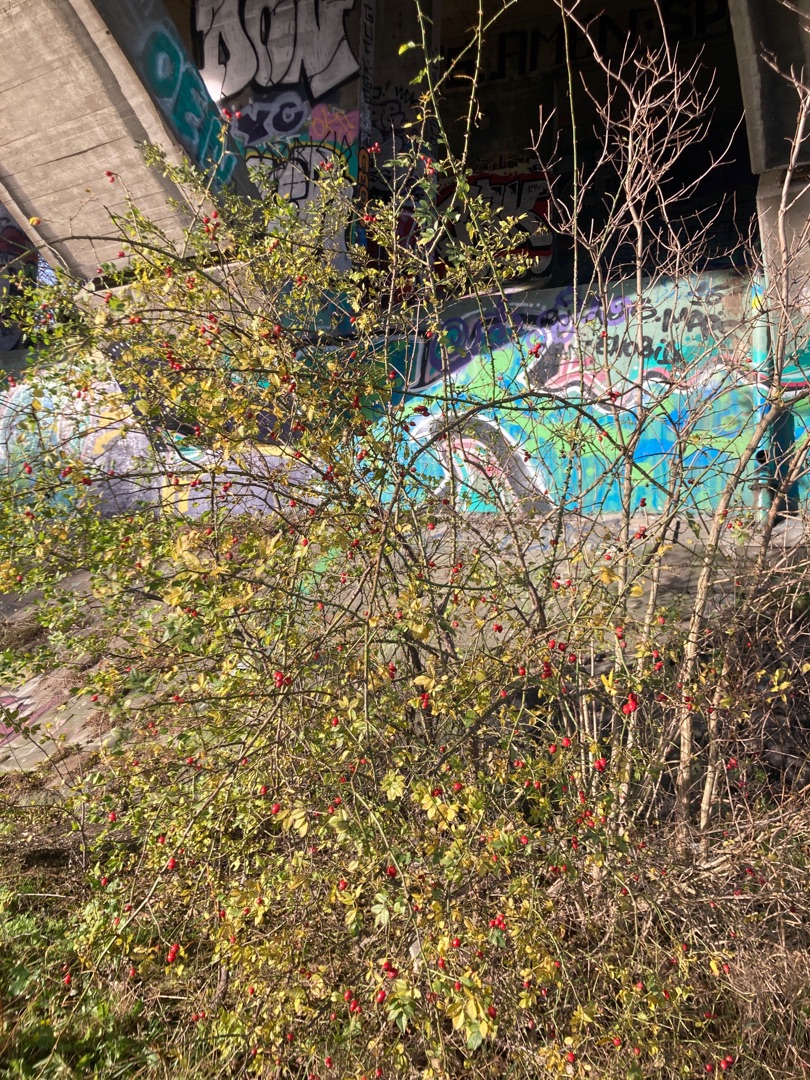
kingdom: Plantae
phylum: Tracheophyta
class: Magnoliopsida
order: Rosales
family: Rosaceae
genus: Rosa
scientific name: Rosa canina
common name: Hunde-rose
